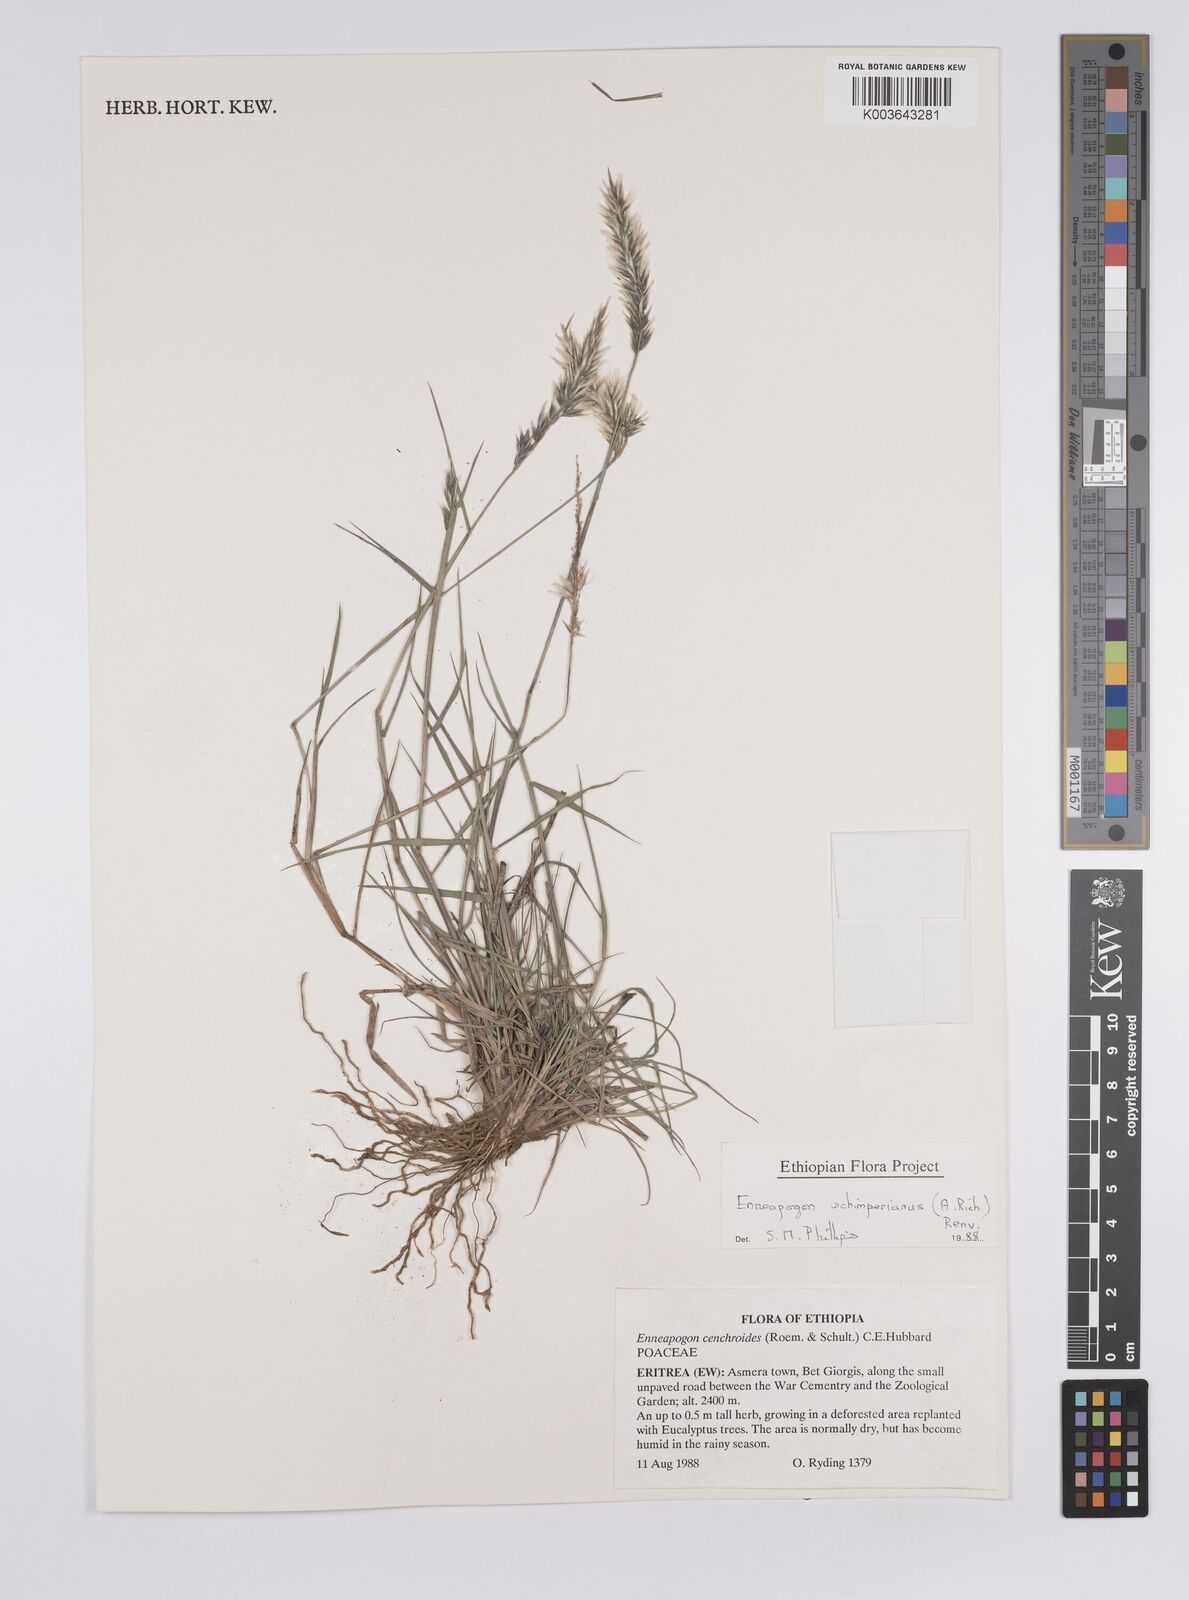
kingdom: Plantae
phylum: Tracheophyta
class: Liliopsida
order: Poales
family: Poaceae
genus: Enneapogon
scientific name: Enneapogon persicus
